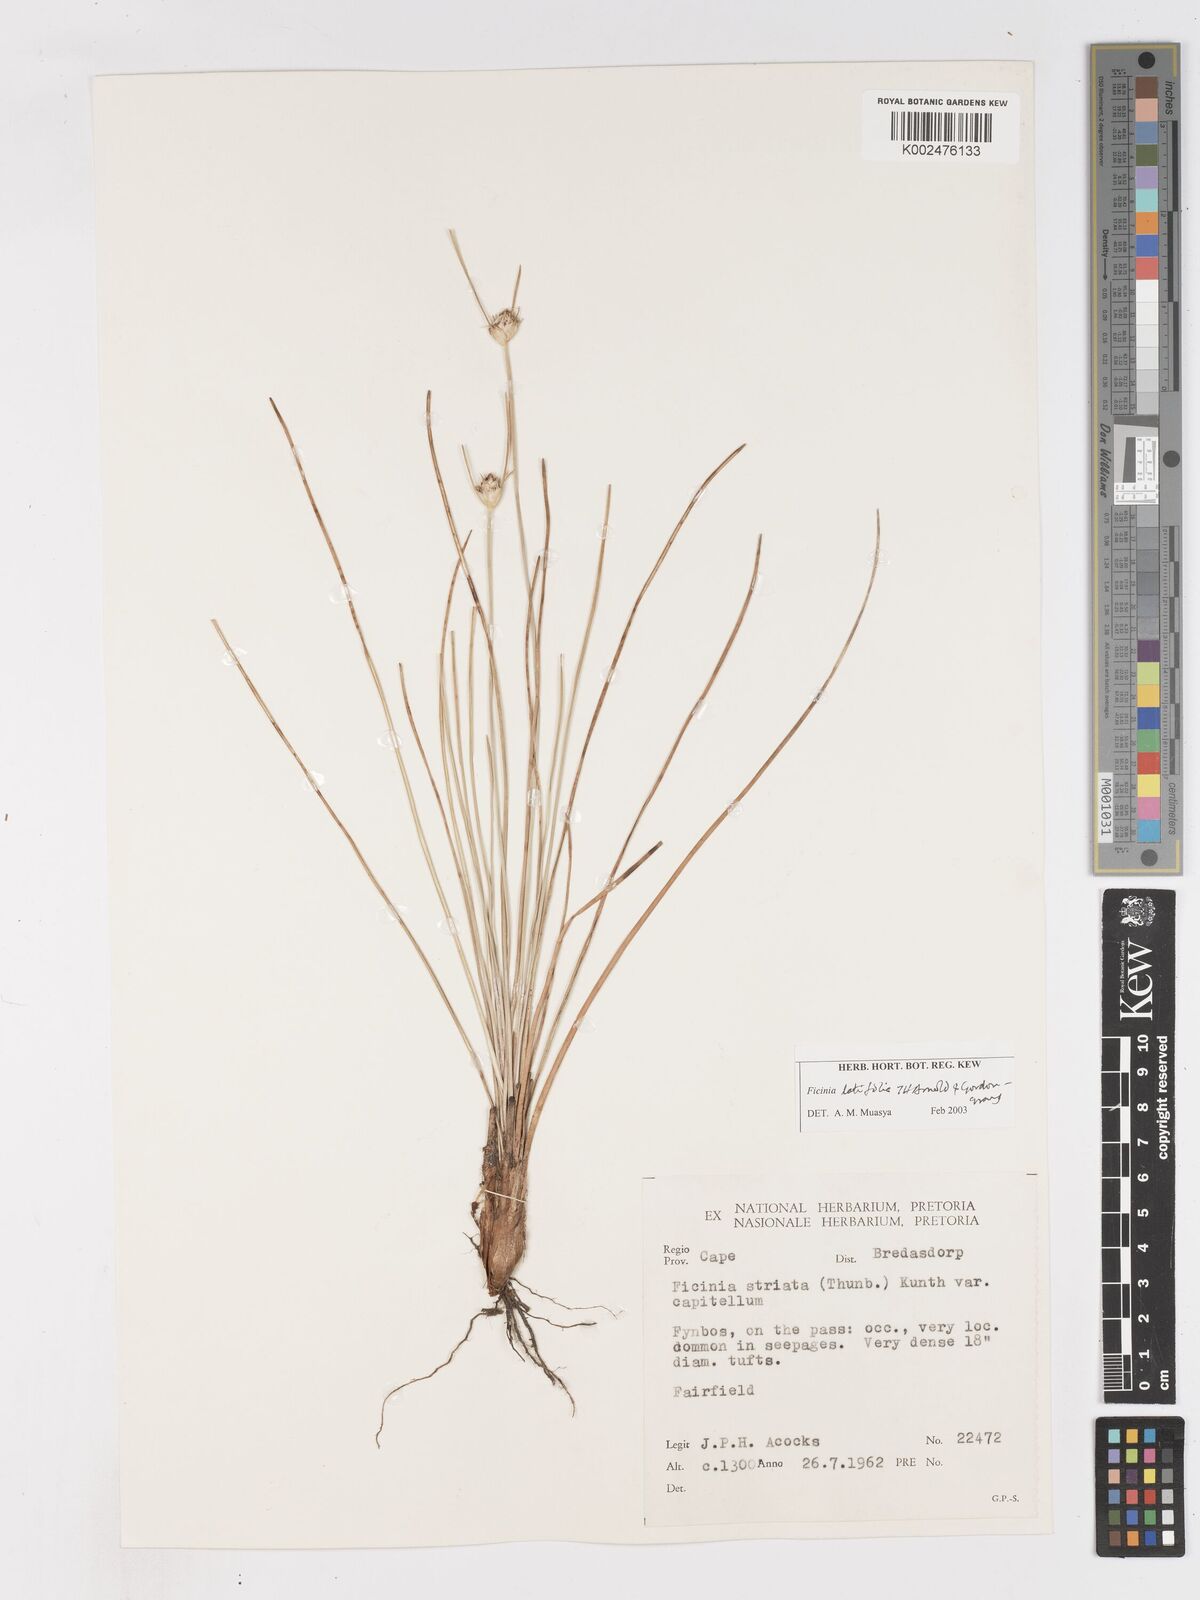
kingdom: Plantae
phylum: Tracheophyta
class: Liliopsida
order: Poales
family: Cyperaceae
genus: Ficinia
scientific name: Ficinia latifolia
